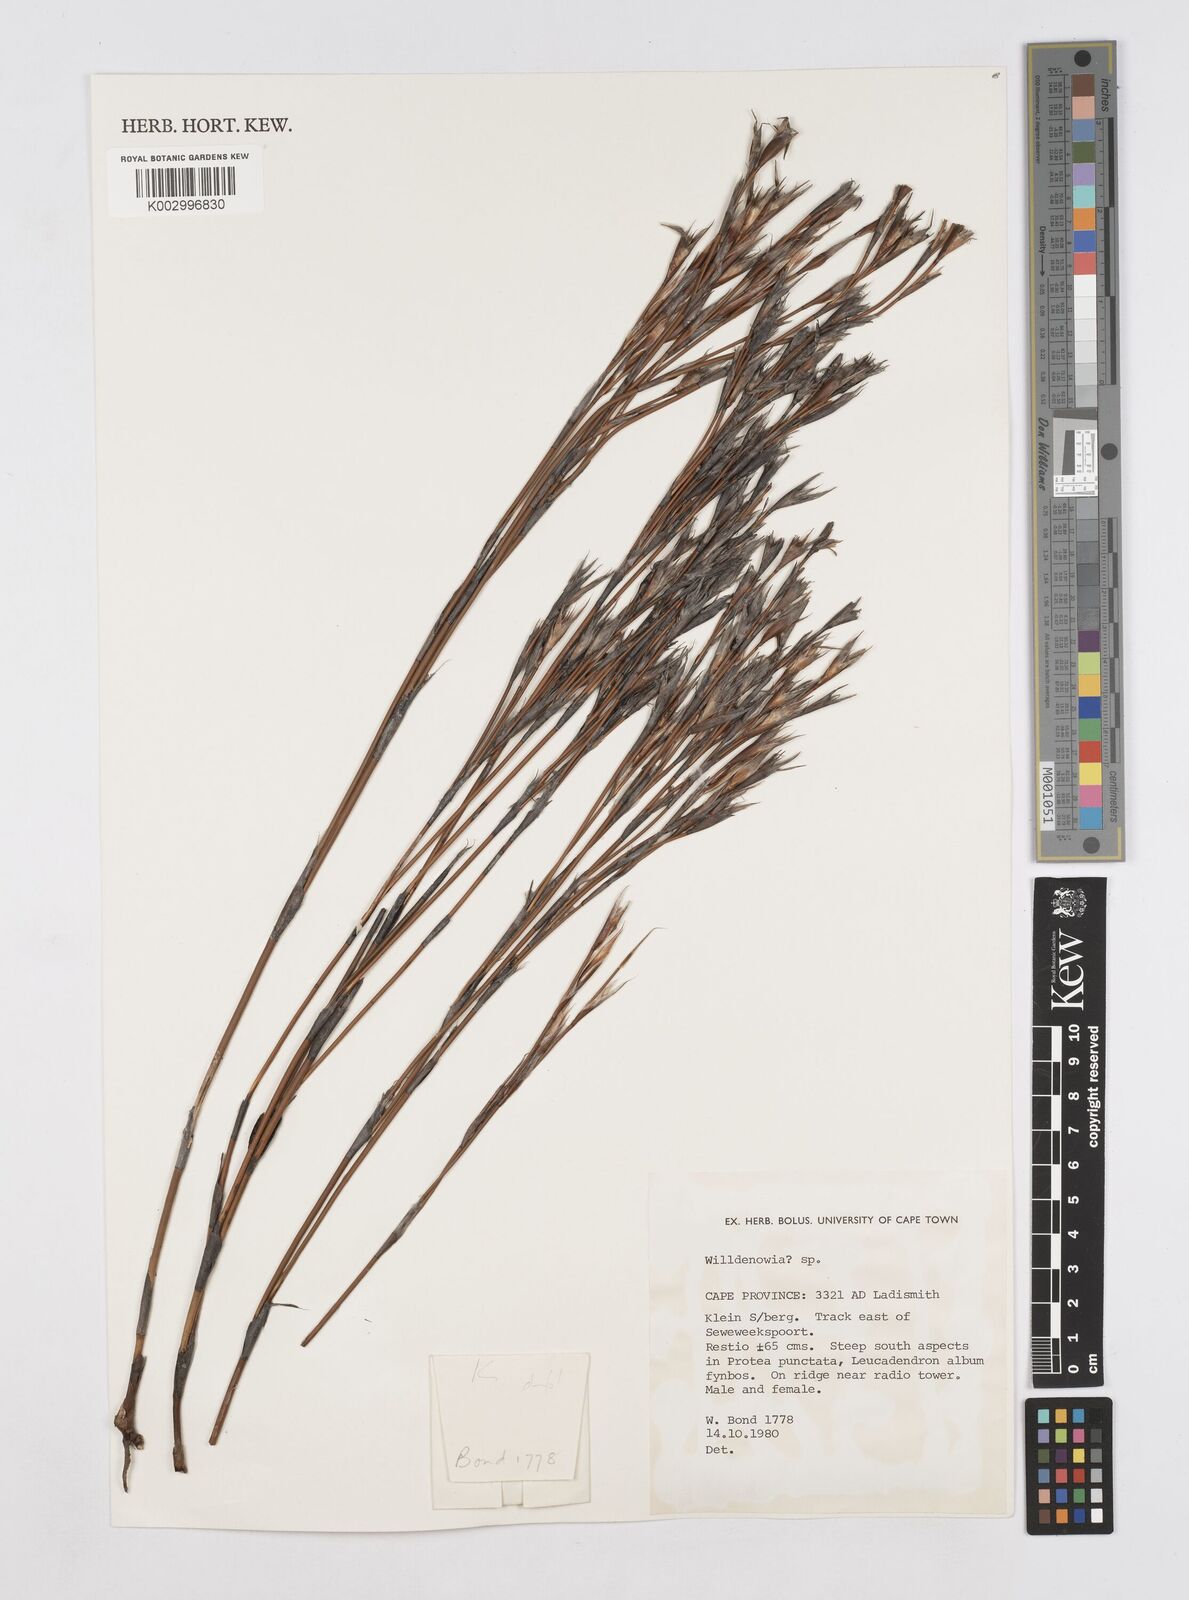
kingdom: Plantae
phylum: Tracheophyta
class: Liliopsida
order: Poales
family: Restionaceae
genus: Willdenowia
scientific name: Willdenowia
